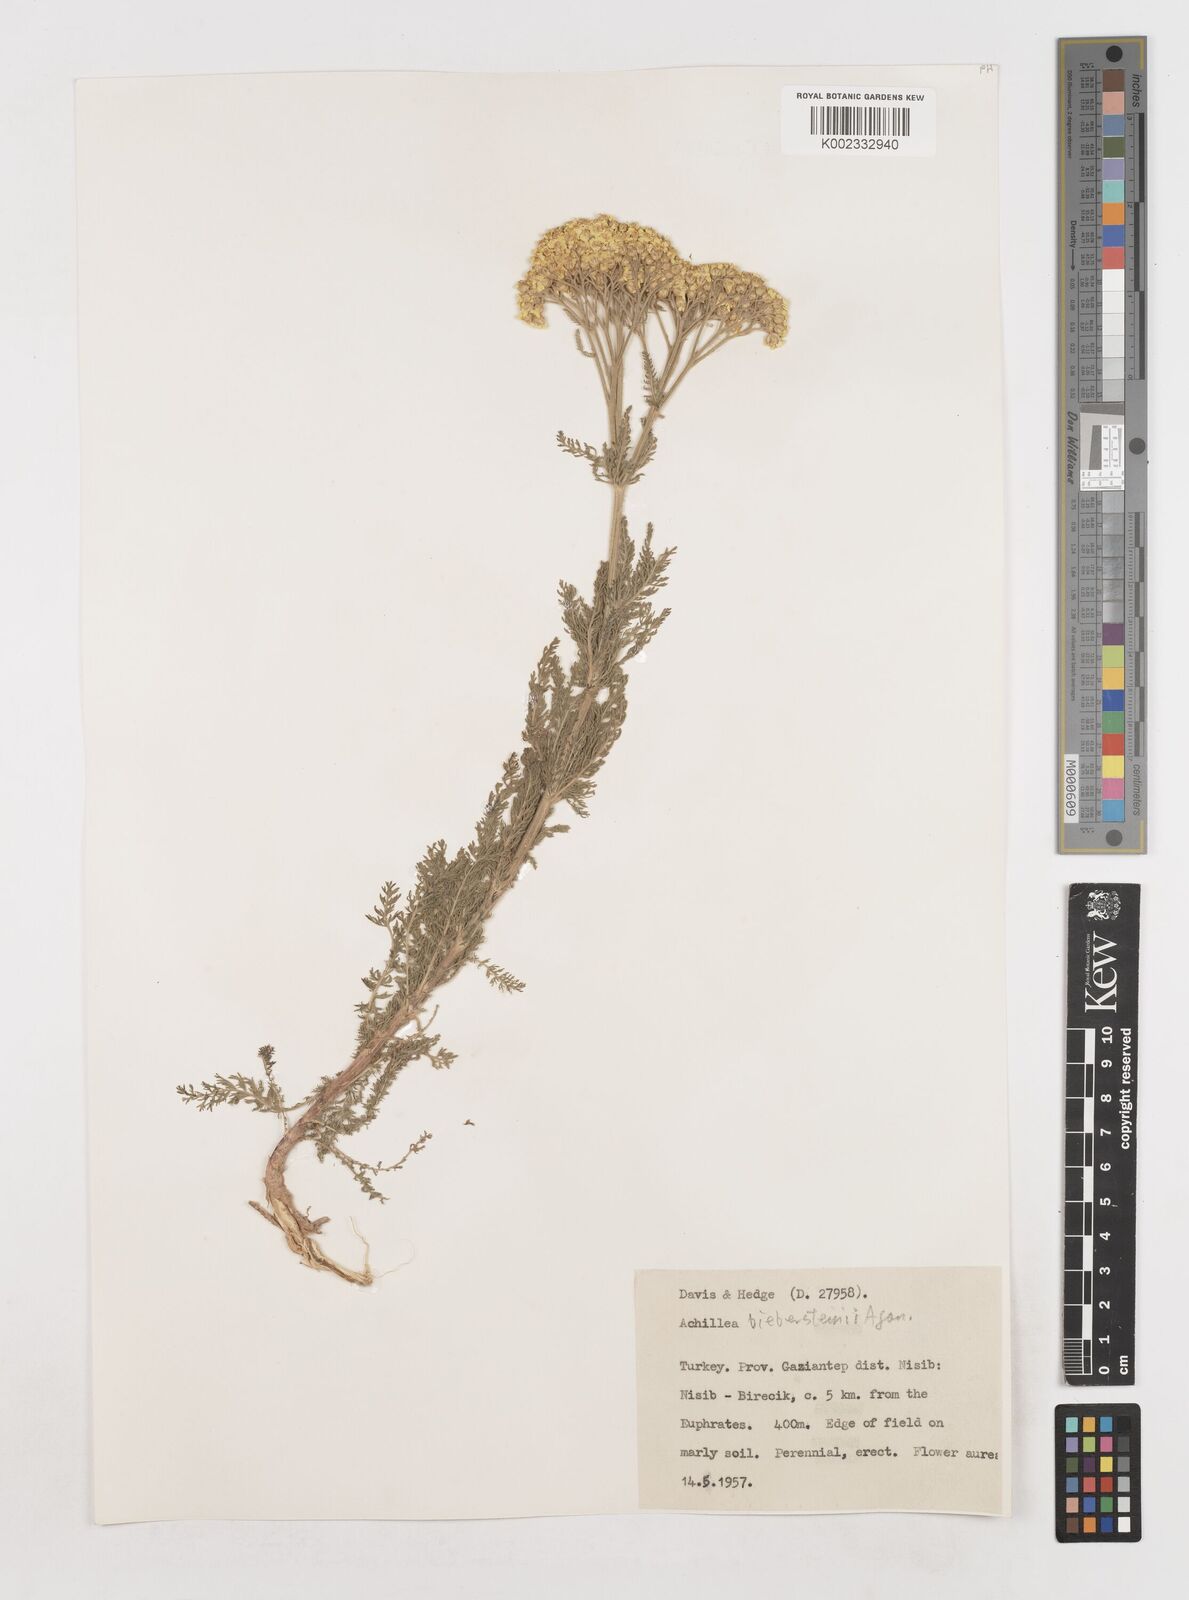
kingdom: Plantae
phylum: Tracheophyta
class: Magnoliopsida
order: Asterales
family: Asteraceae
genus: Achillea
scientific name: Achillea arabica
